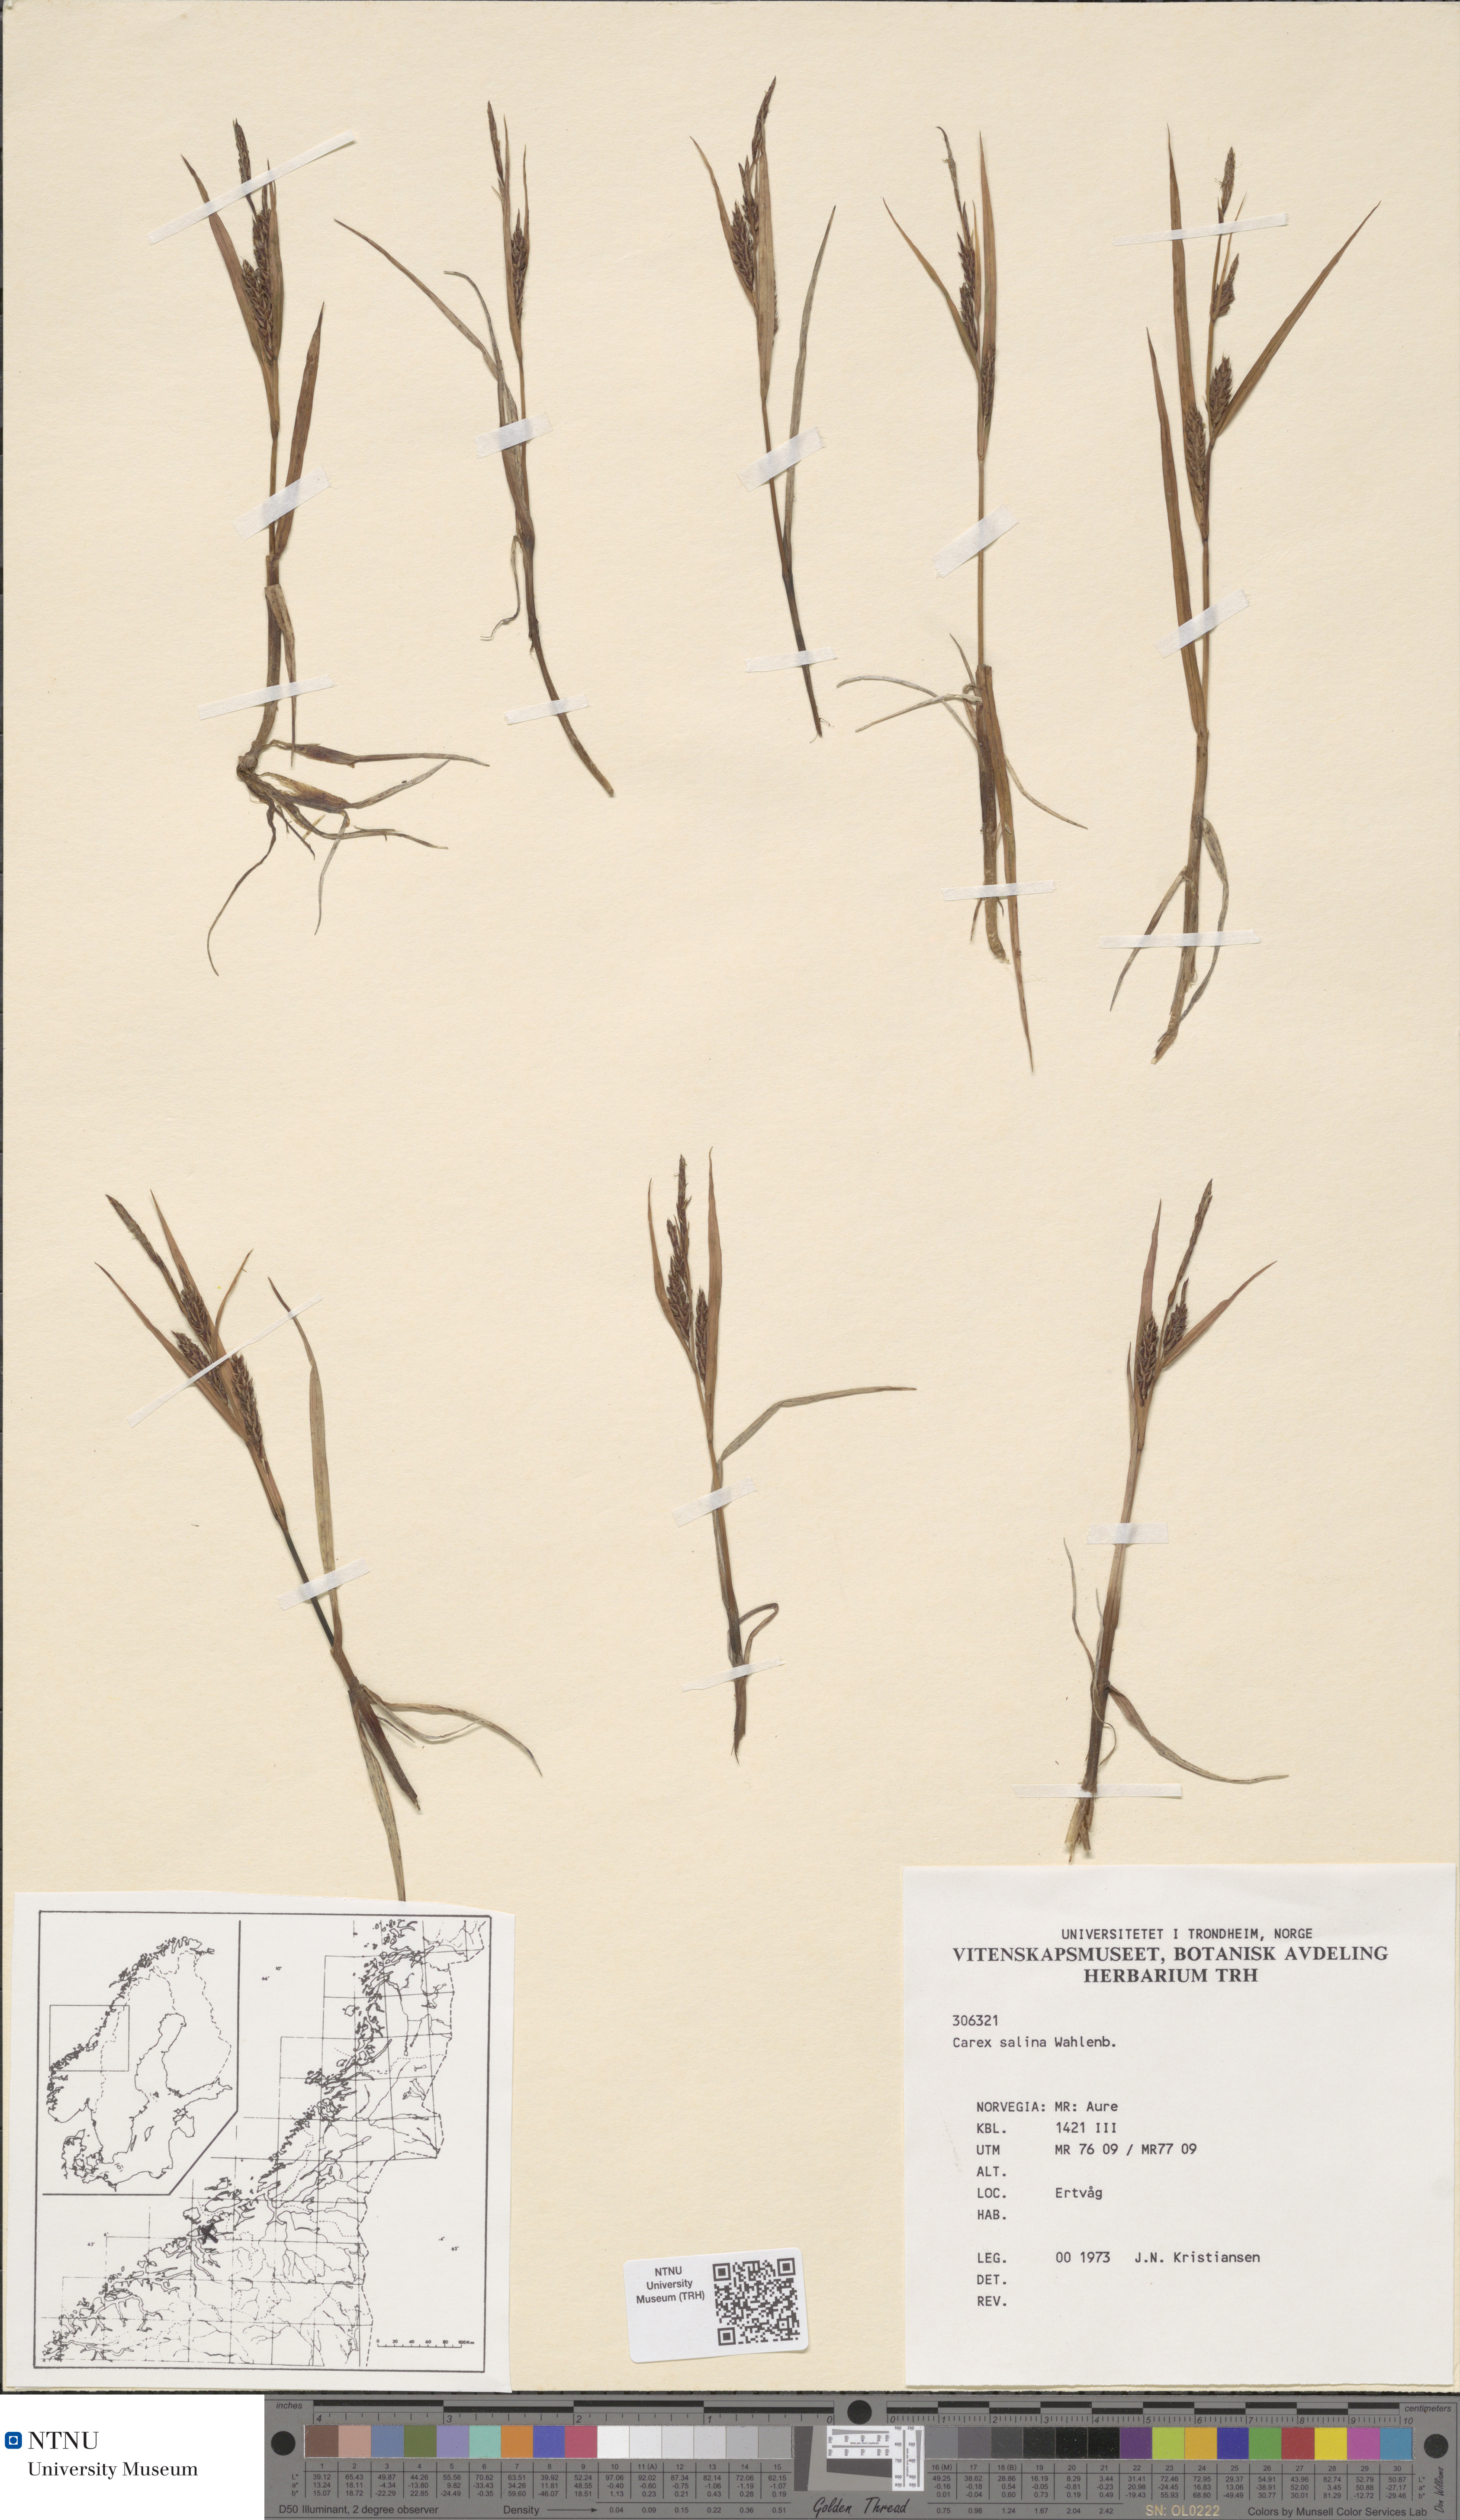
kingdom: Plantae
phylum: Tracheophyta
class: Liliopsida
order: Poales
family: Cyperaceae
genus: Carex
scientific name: Carex salina
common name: Saltmarsh sedge
